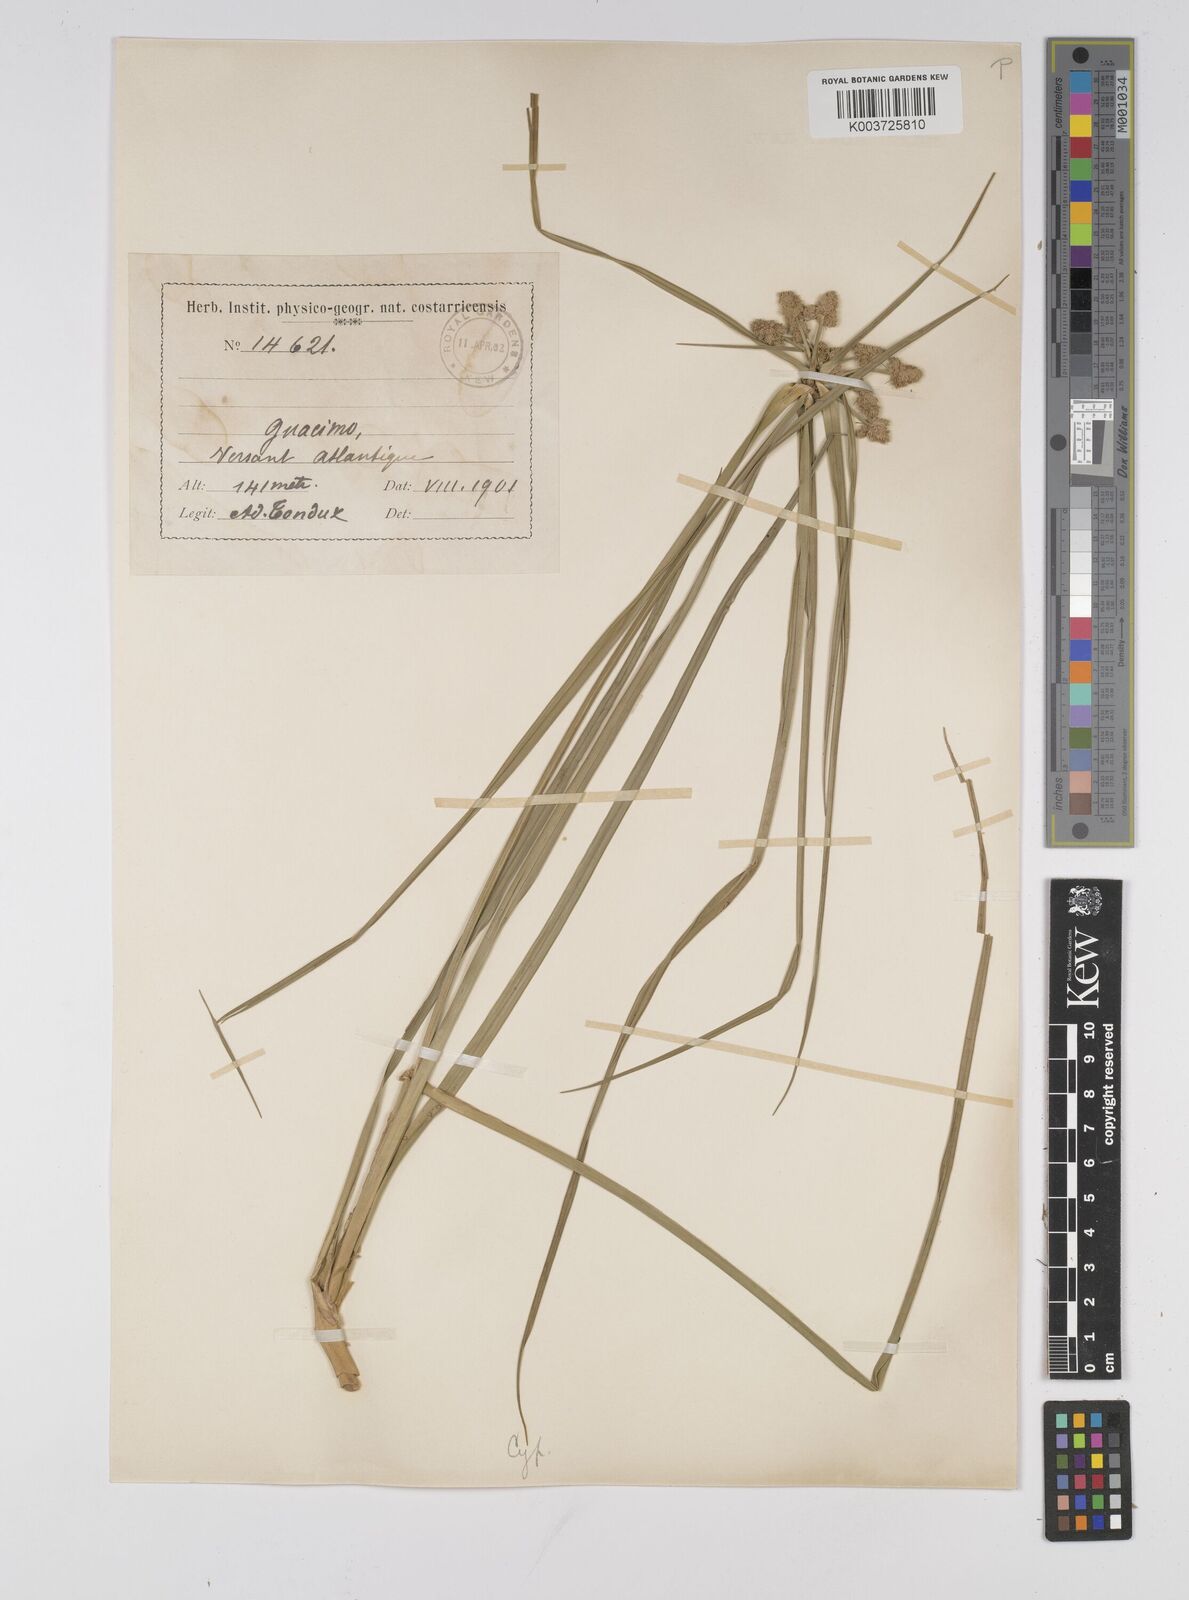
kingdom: Plantae
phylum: Tracheophyta
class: Liliopsida
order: Poales
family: Cyperaceae
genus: Cyperus
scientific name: Cyperus luzulae
